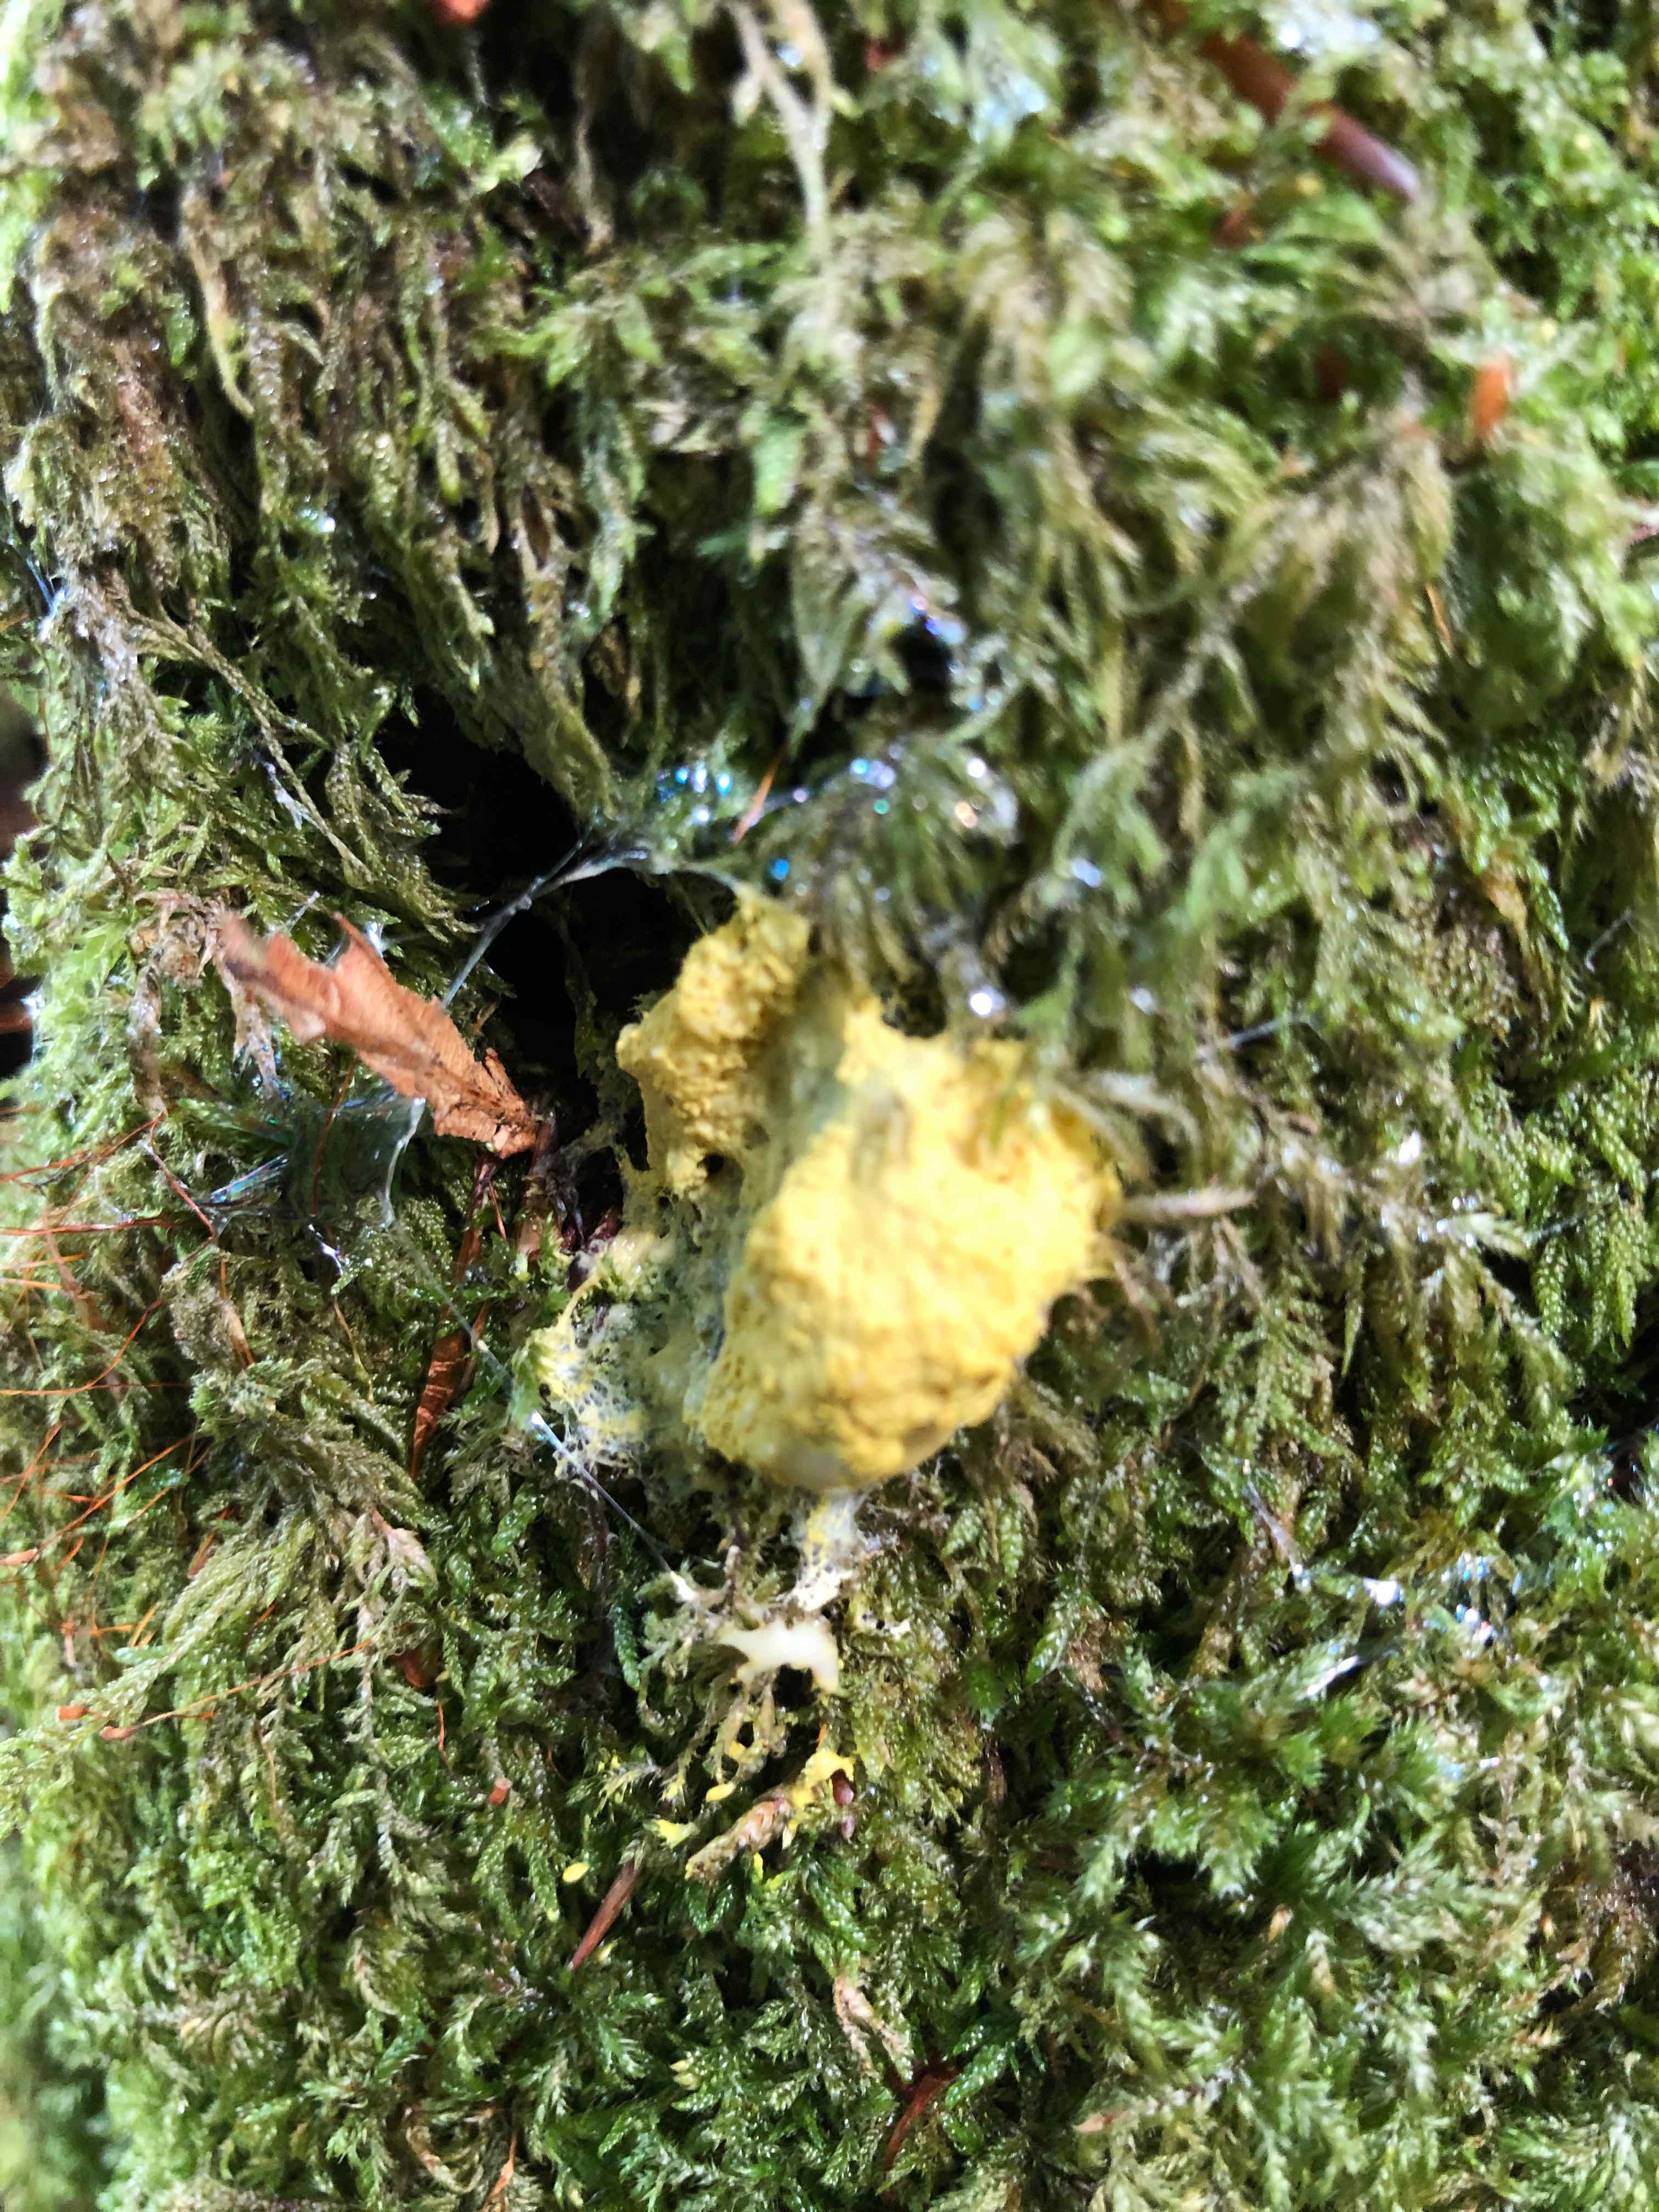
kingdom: Protozoa
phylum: Mycetozoa
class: Myxomycetes
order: Physarales
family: Physaraceae
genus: Fuligo
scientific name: Fuligo septica
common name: gul troldsmør
